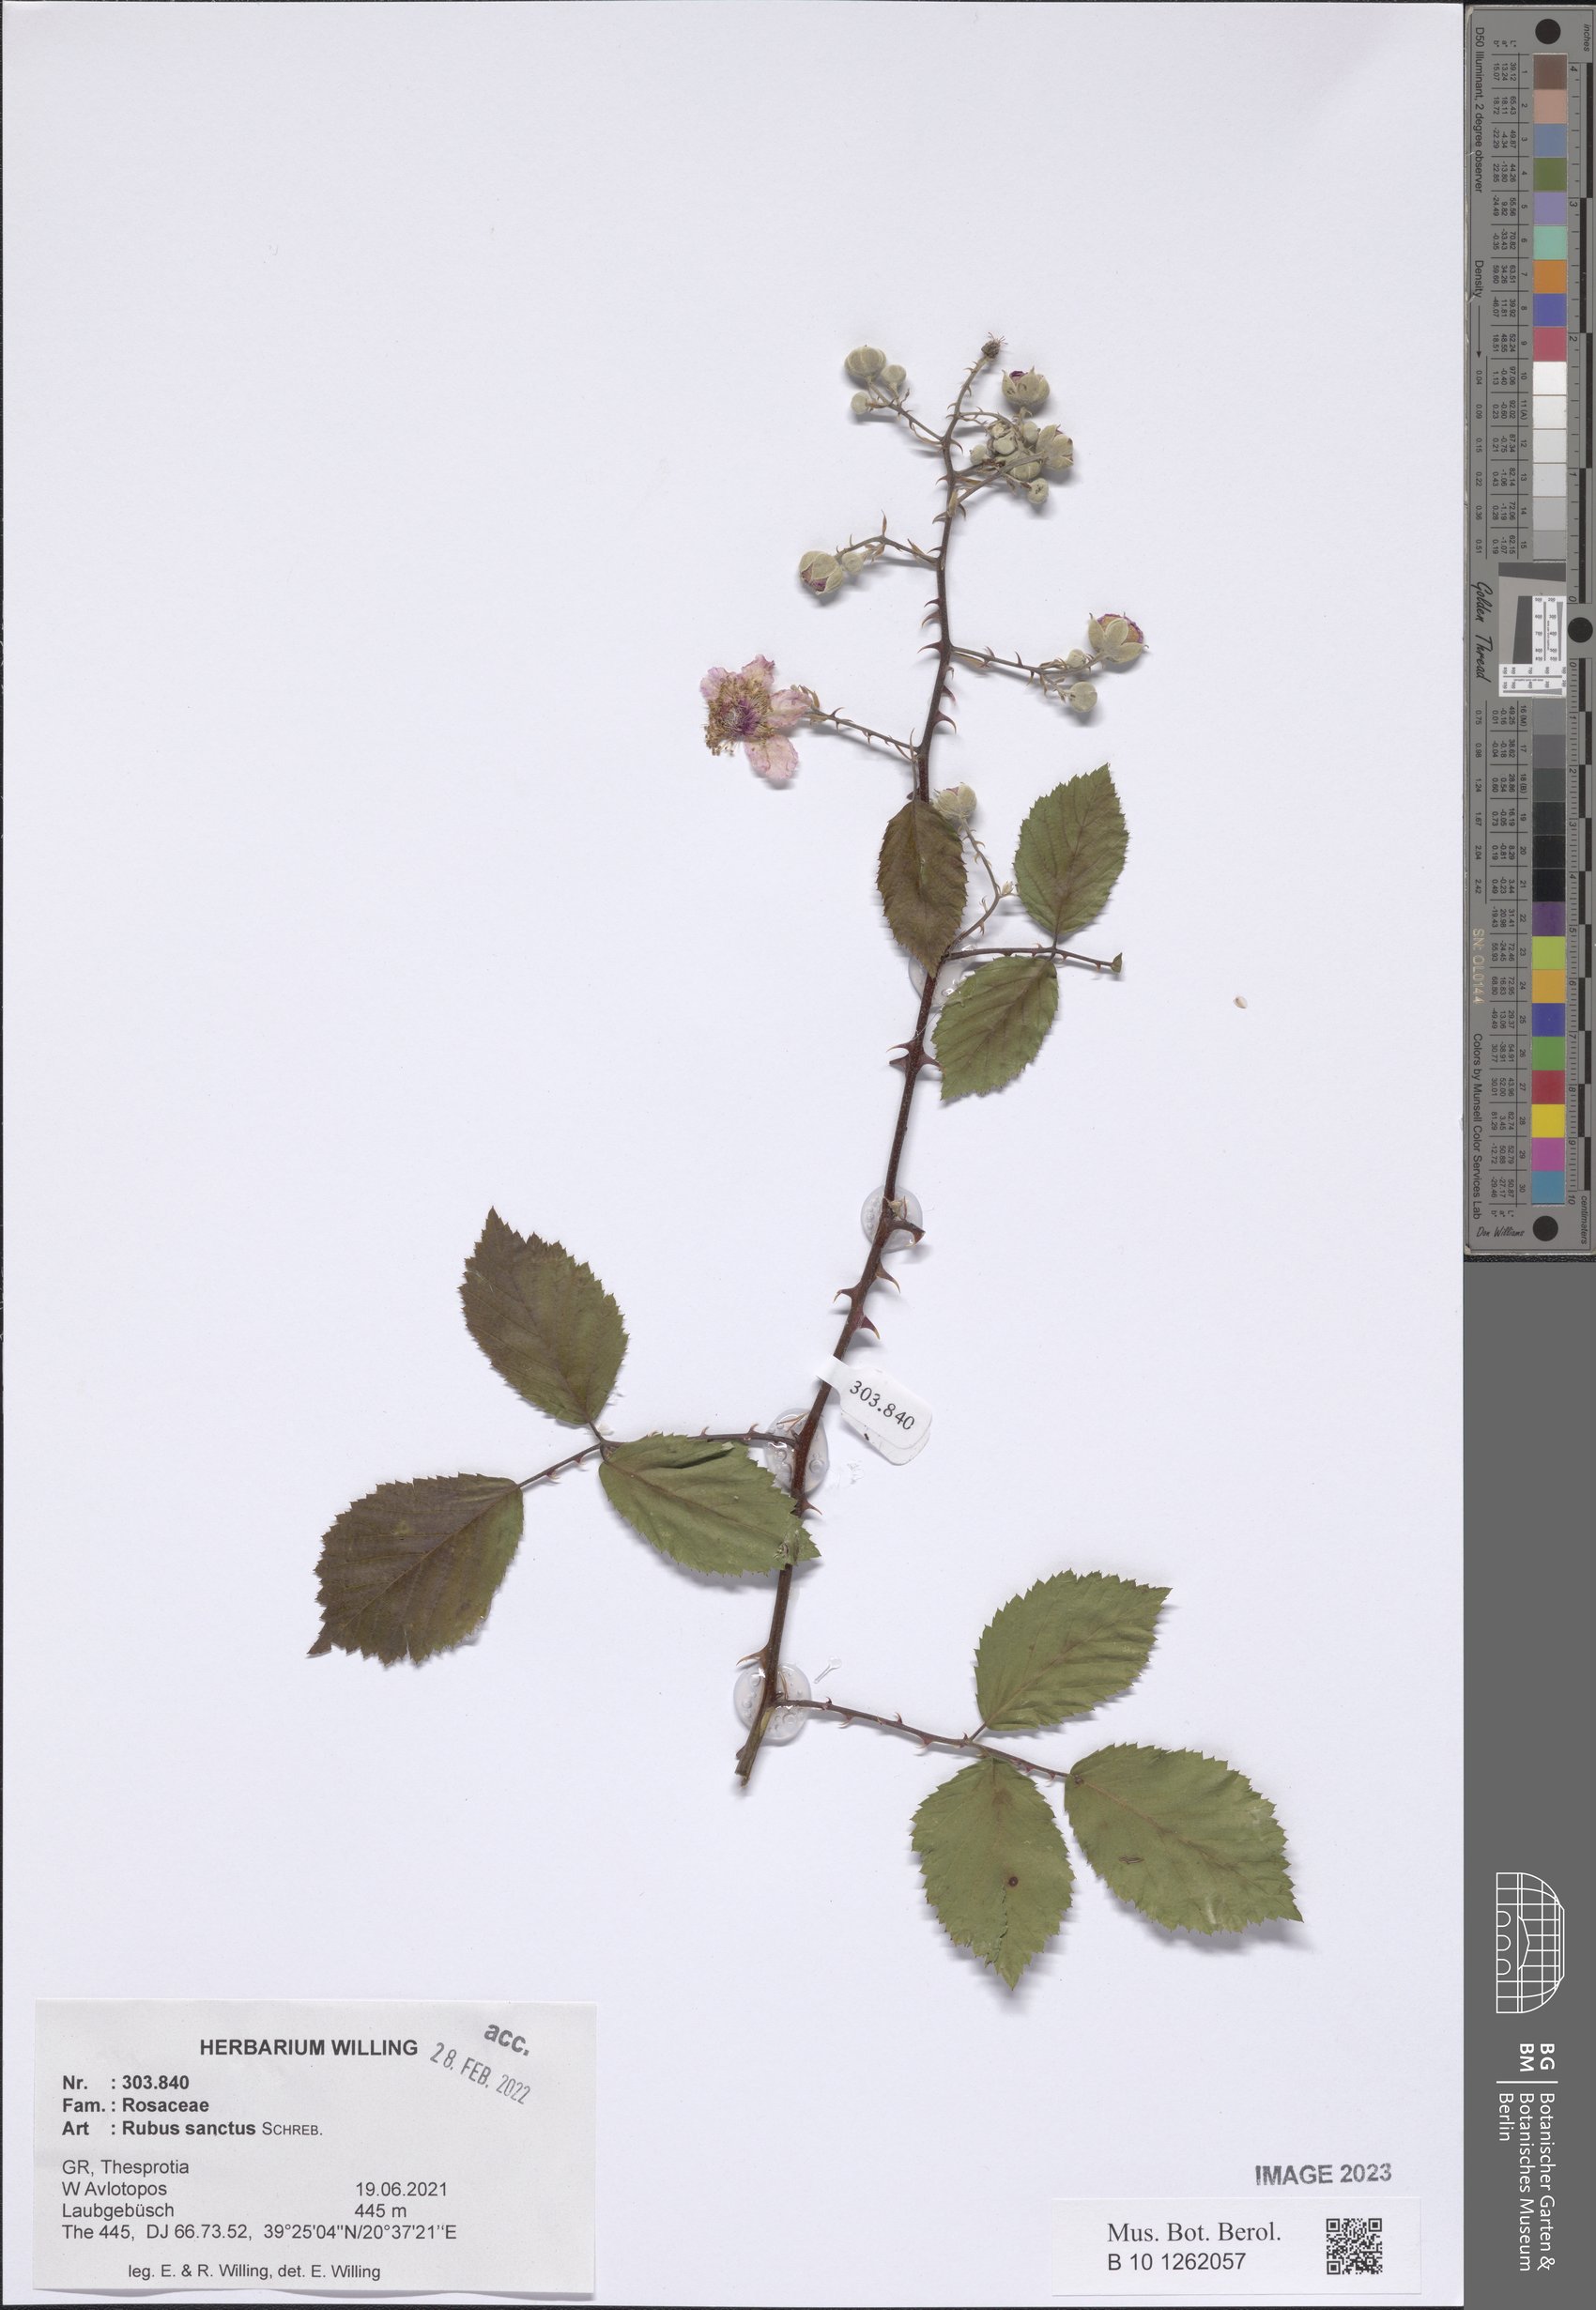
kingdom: Plantae
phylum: Tracheophyta
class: Magnoliopsida
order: Rosales
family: Rosaceae
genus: Rubus
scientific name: Rubus sanctus
